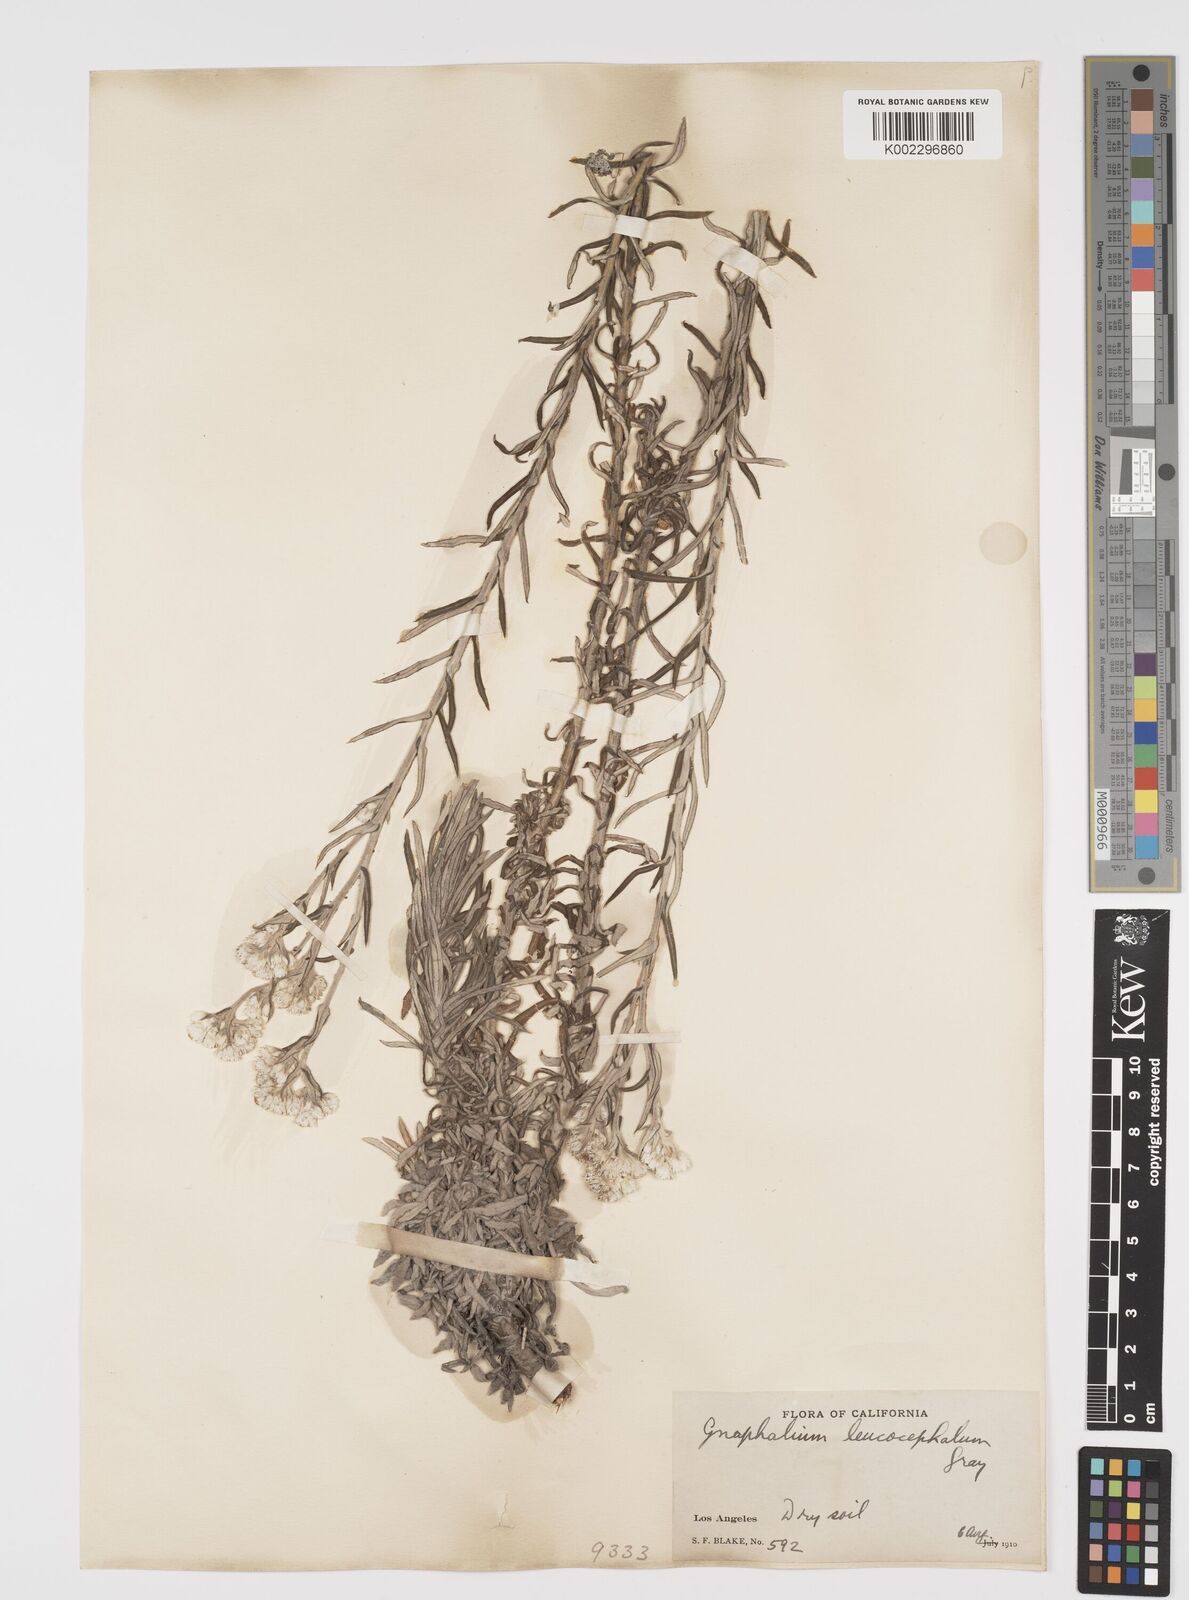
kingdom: Plantae
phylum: Tracheophyta
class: Magnoliopsida
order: Asterales
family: Asteraceae
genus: Pseudognaphalium
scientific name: Pseudognaphalium leucocephalum
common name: White cudweed
